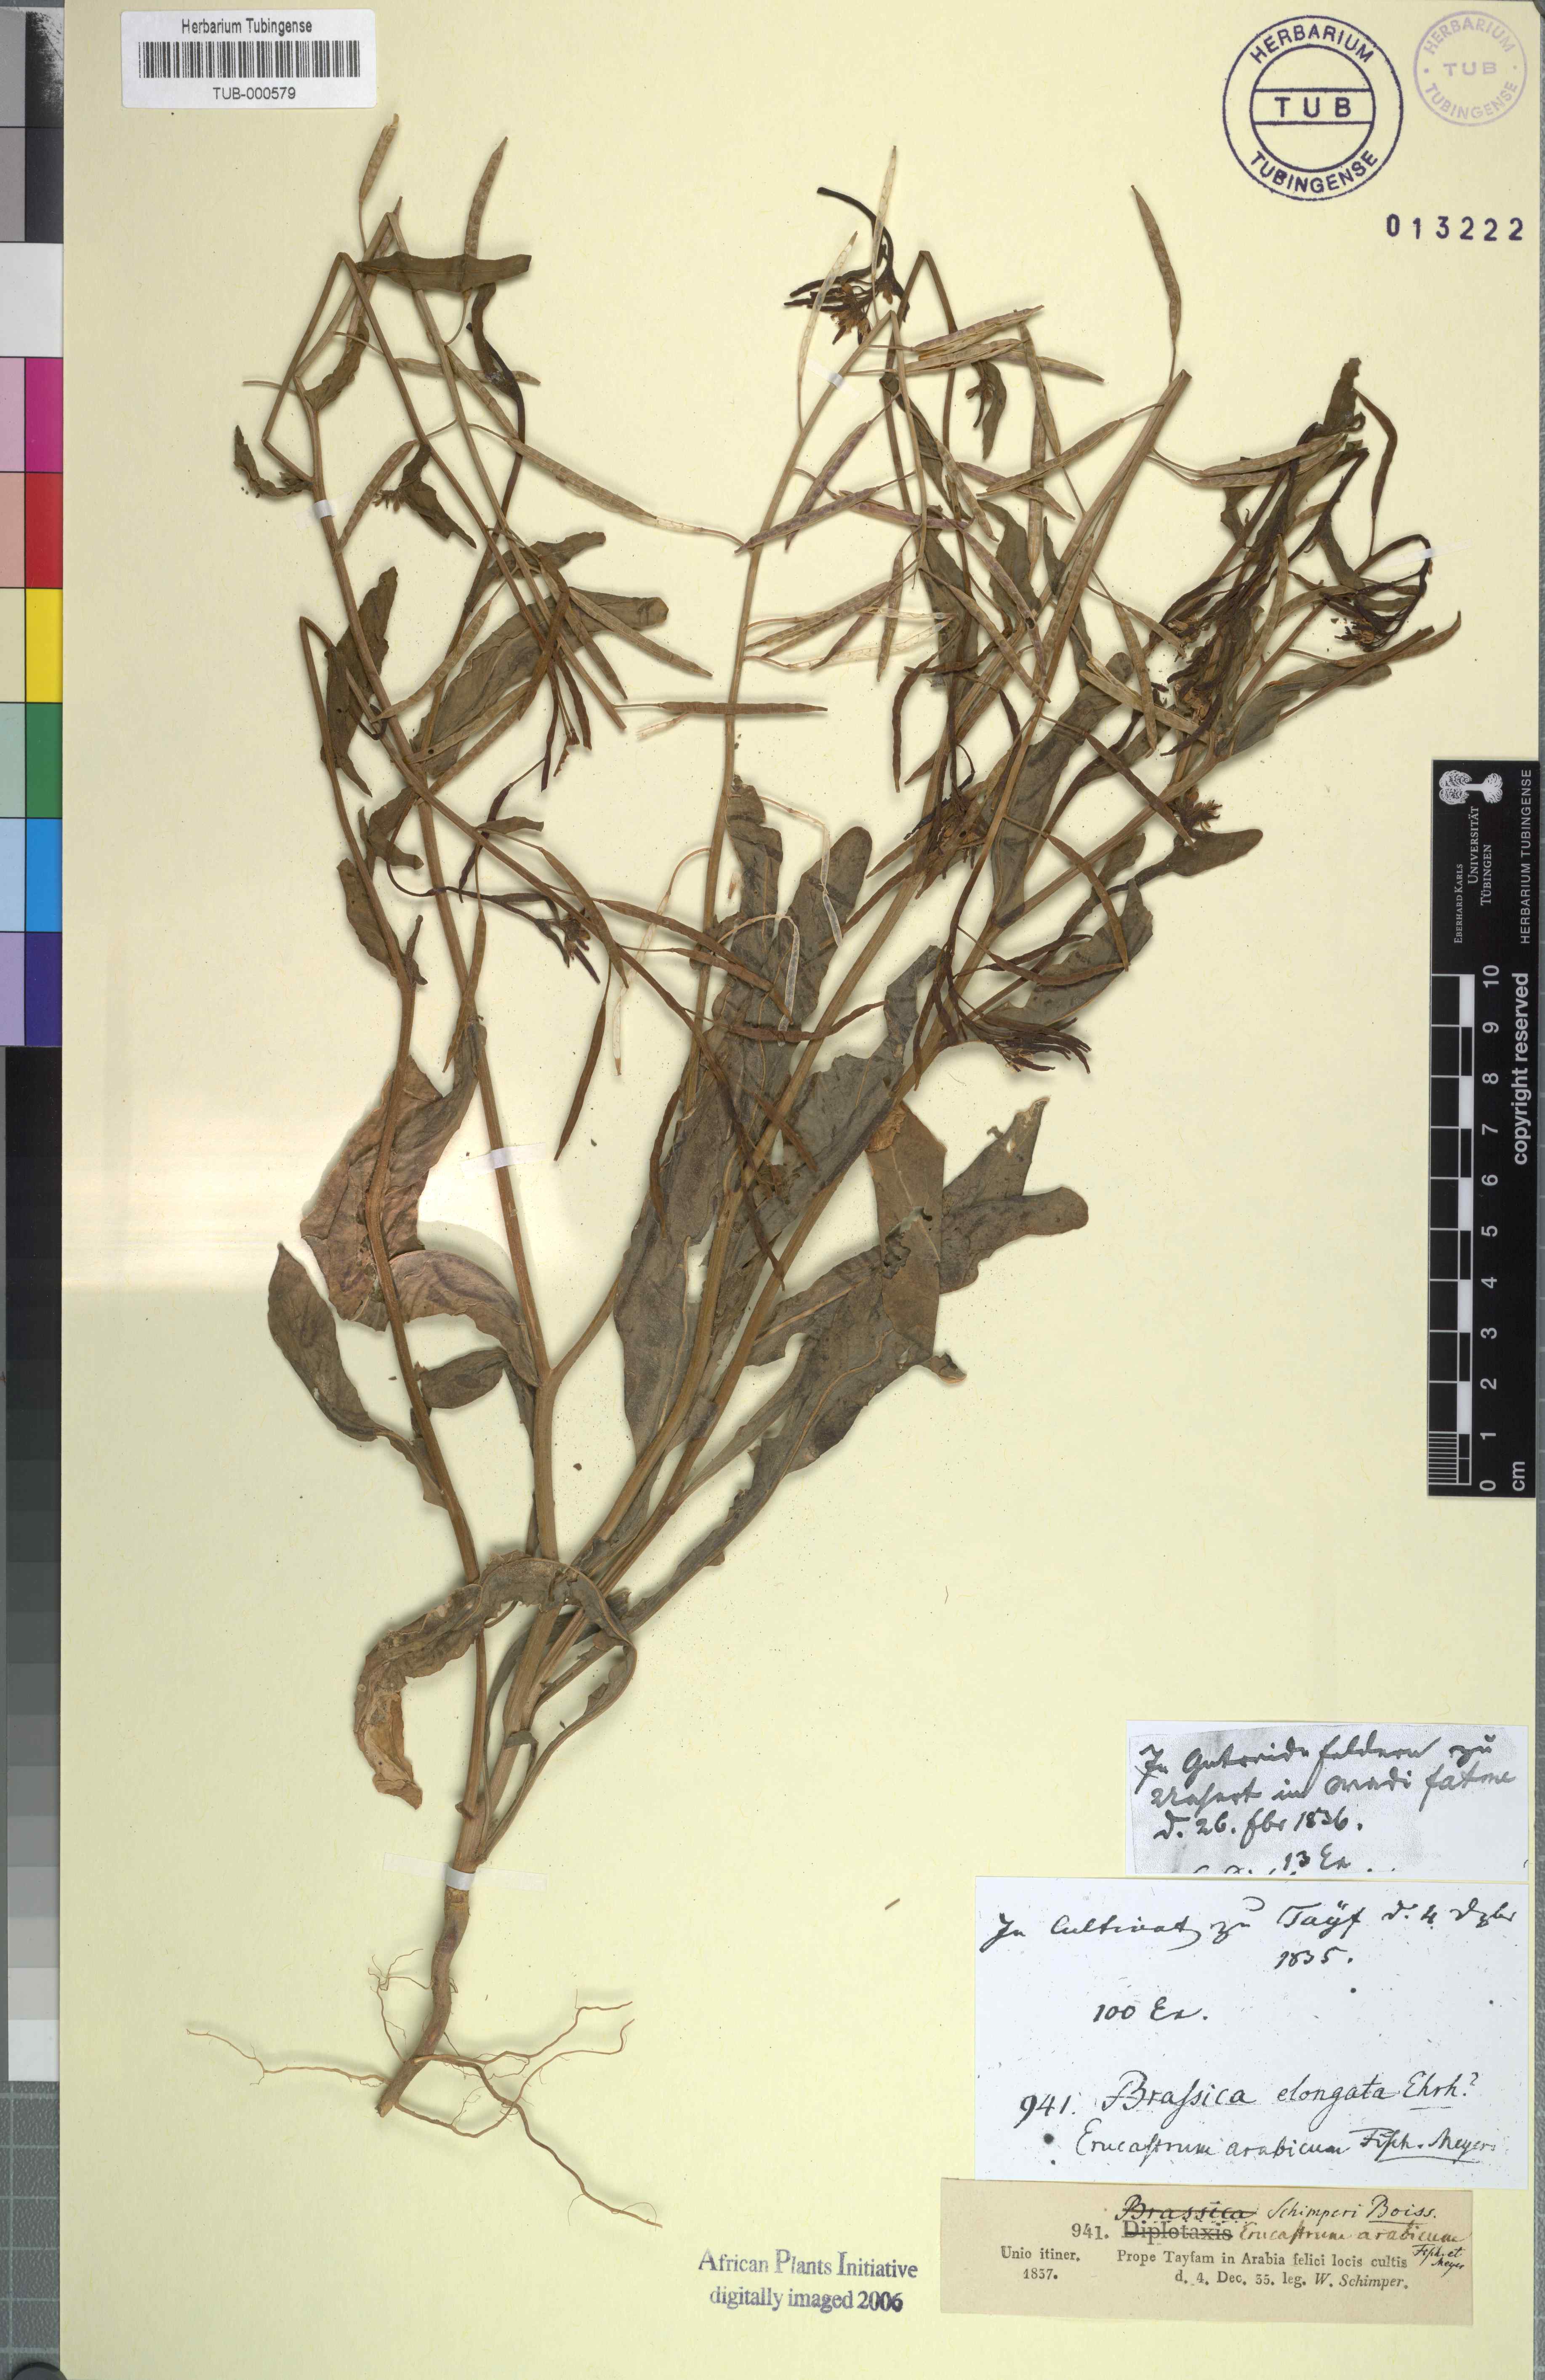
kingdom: Plantae
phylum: Tracheophyta
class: Magnoliopsida
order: Brassicales
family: Brassicaceae
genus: Erucastrum
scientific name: Erucastrum arabicum
